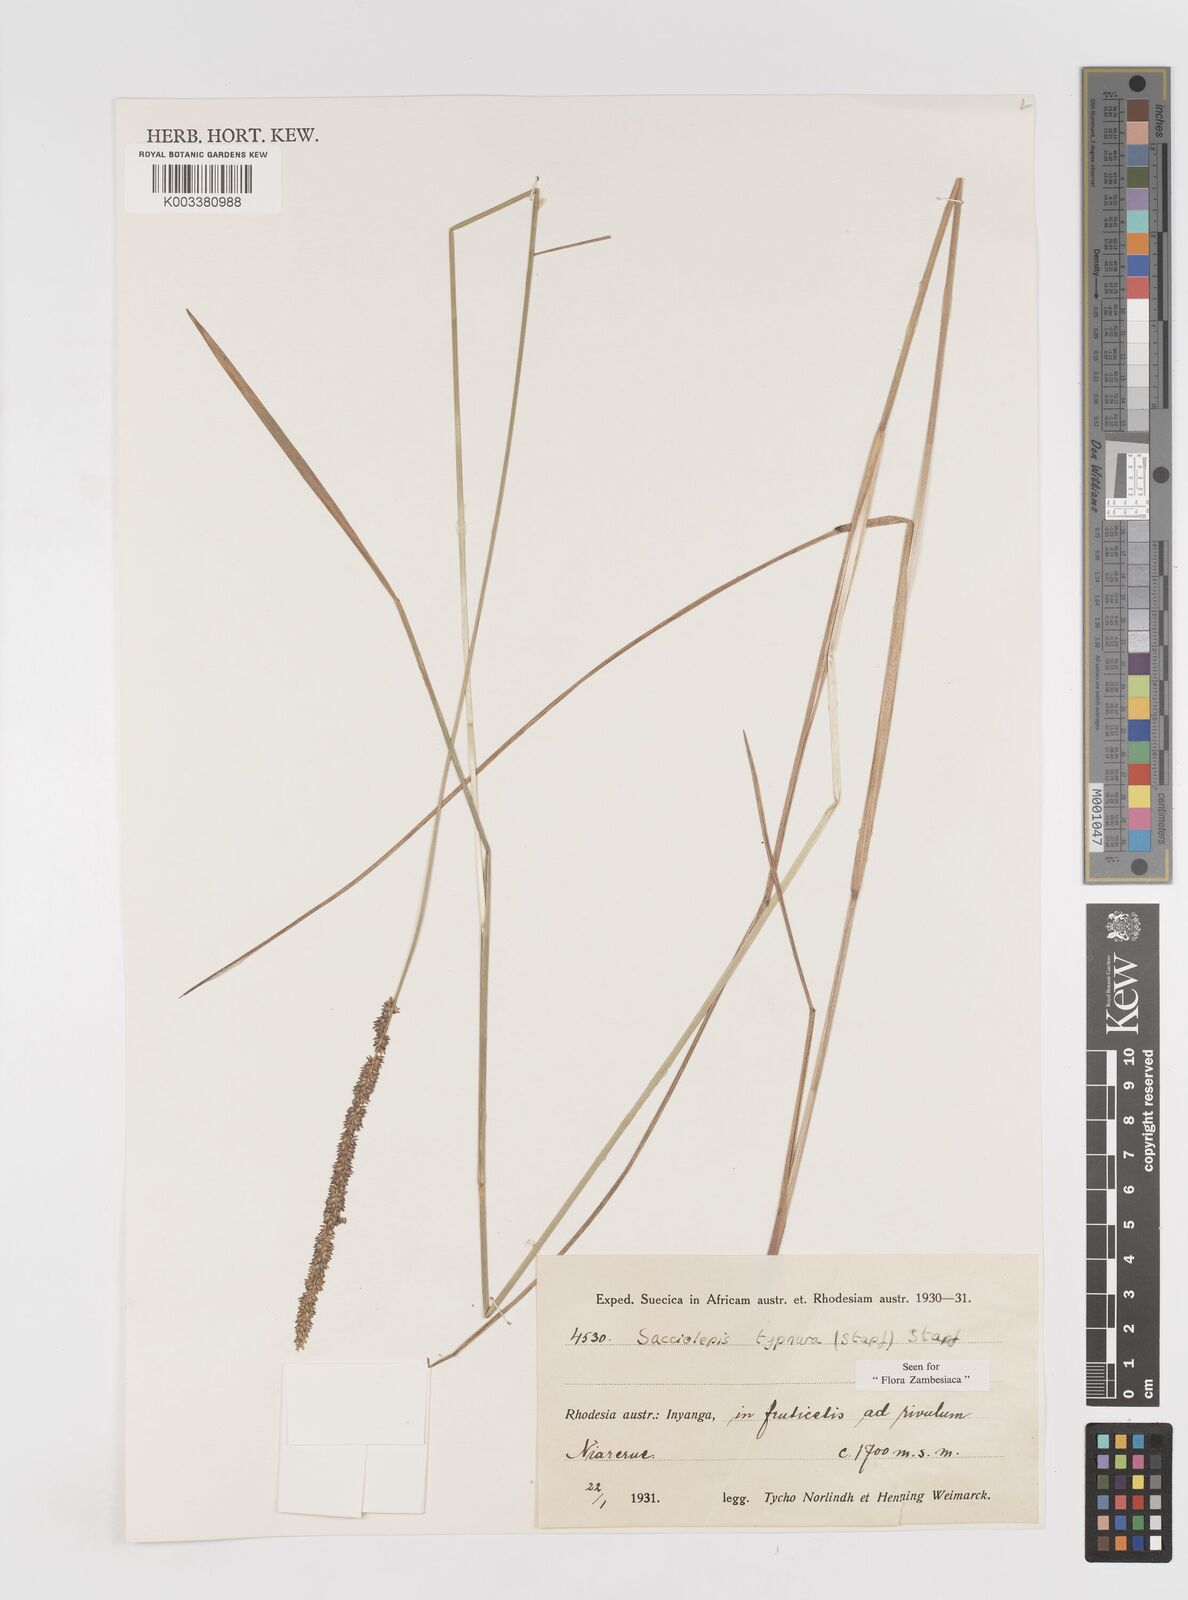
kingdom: Plantae
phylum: Tracheophyta
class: Liliopsida
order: Poales
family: Poaceae
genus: Sacciolepis
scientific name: Sacciolepis typhura
